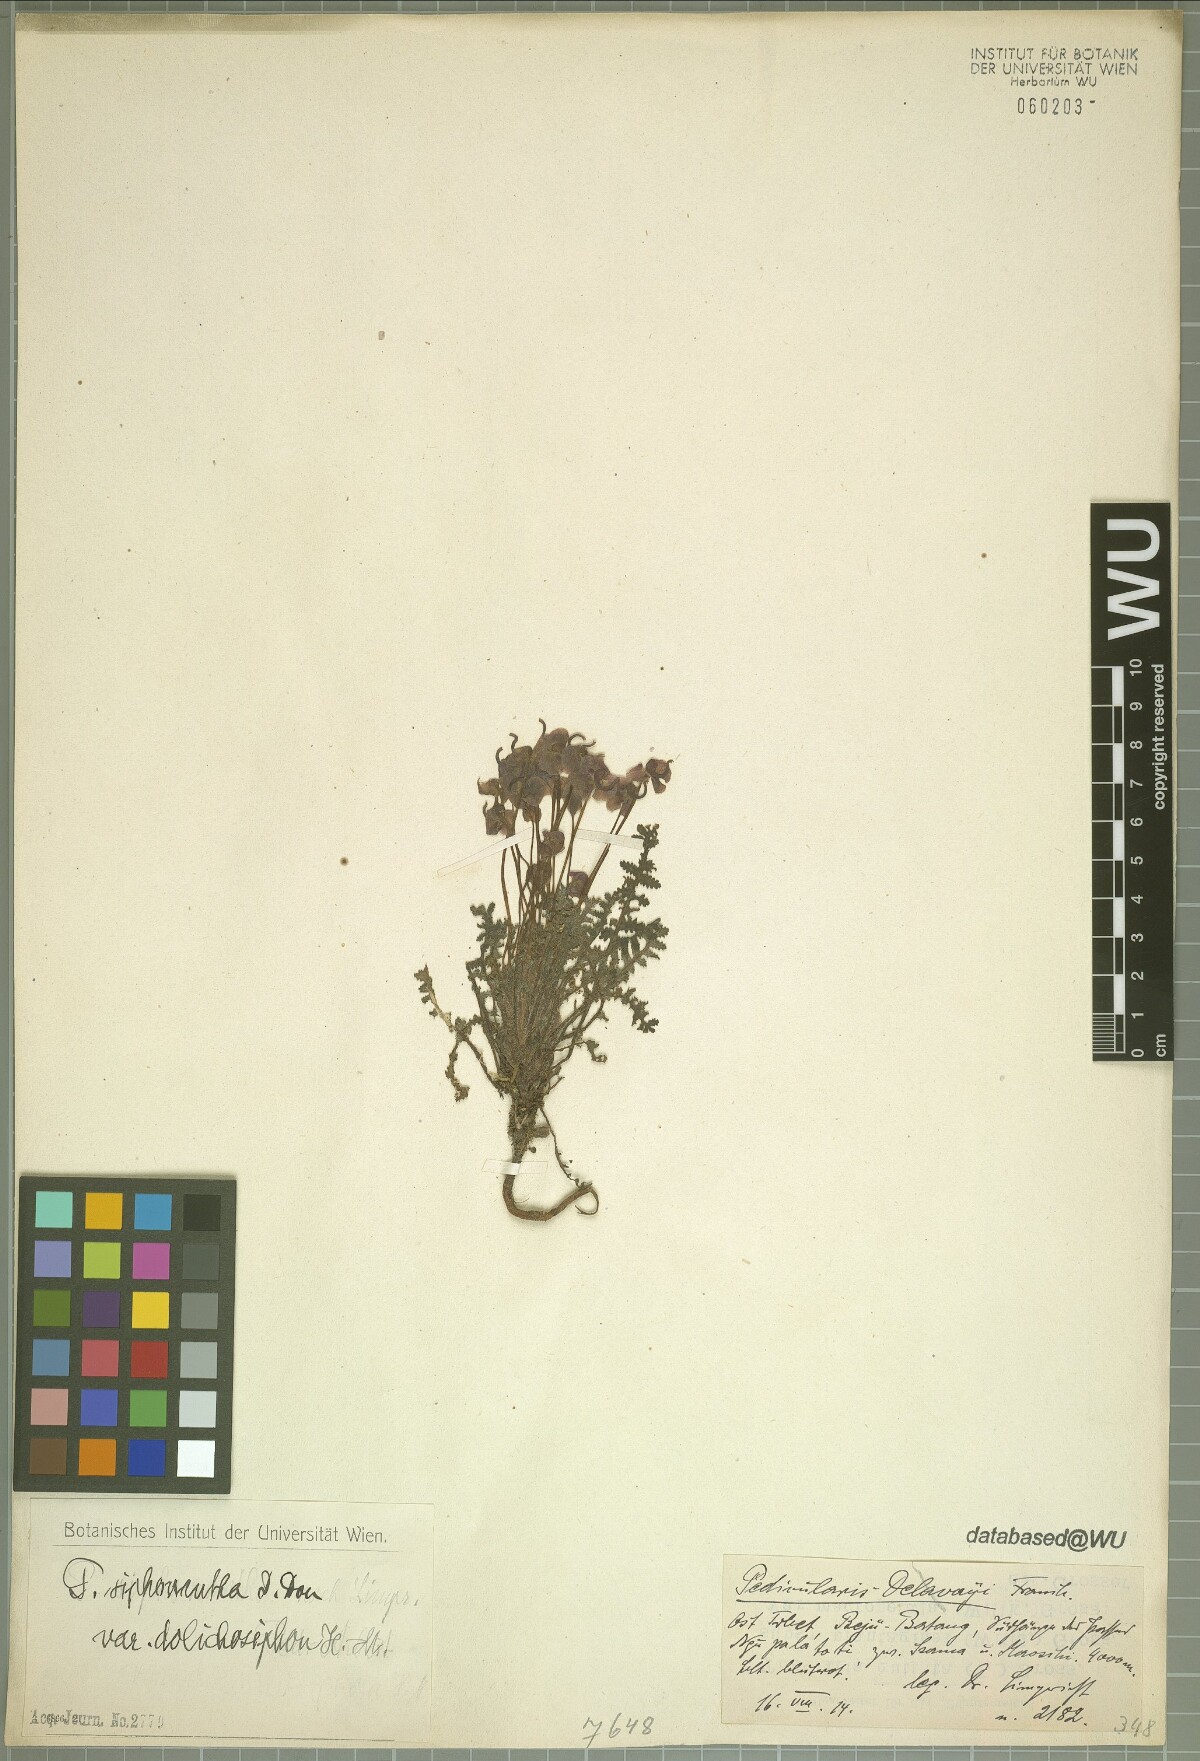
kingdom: Plantae
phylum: Tracheophyta
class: Magnoliopsida
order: Lamiales
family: Orobanchaceae
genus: Pedicularis
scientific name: Pedicularis siphonantha
